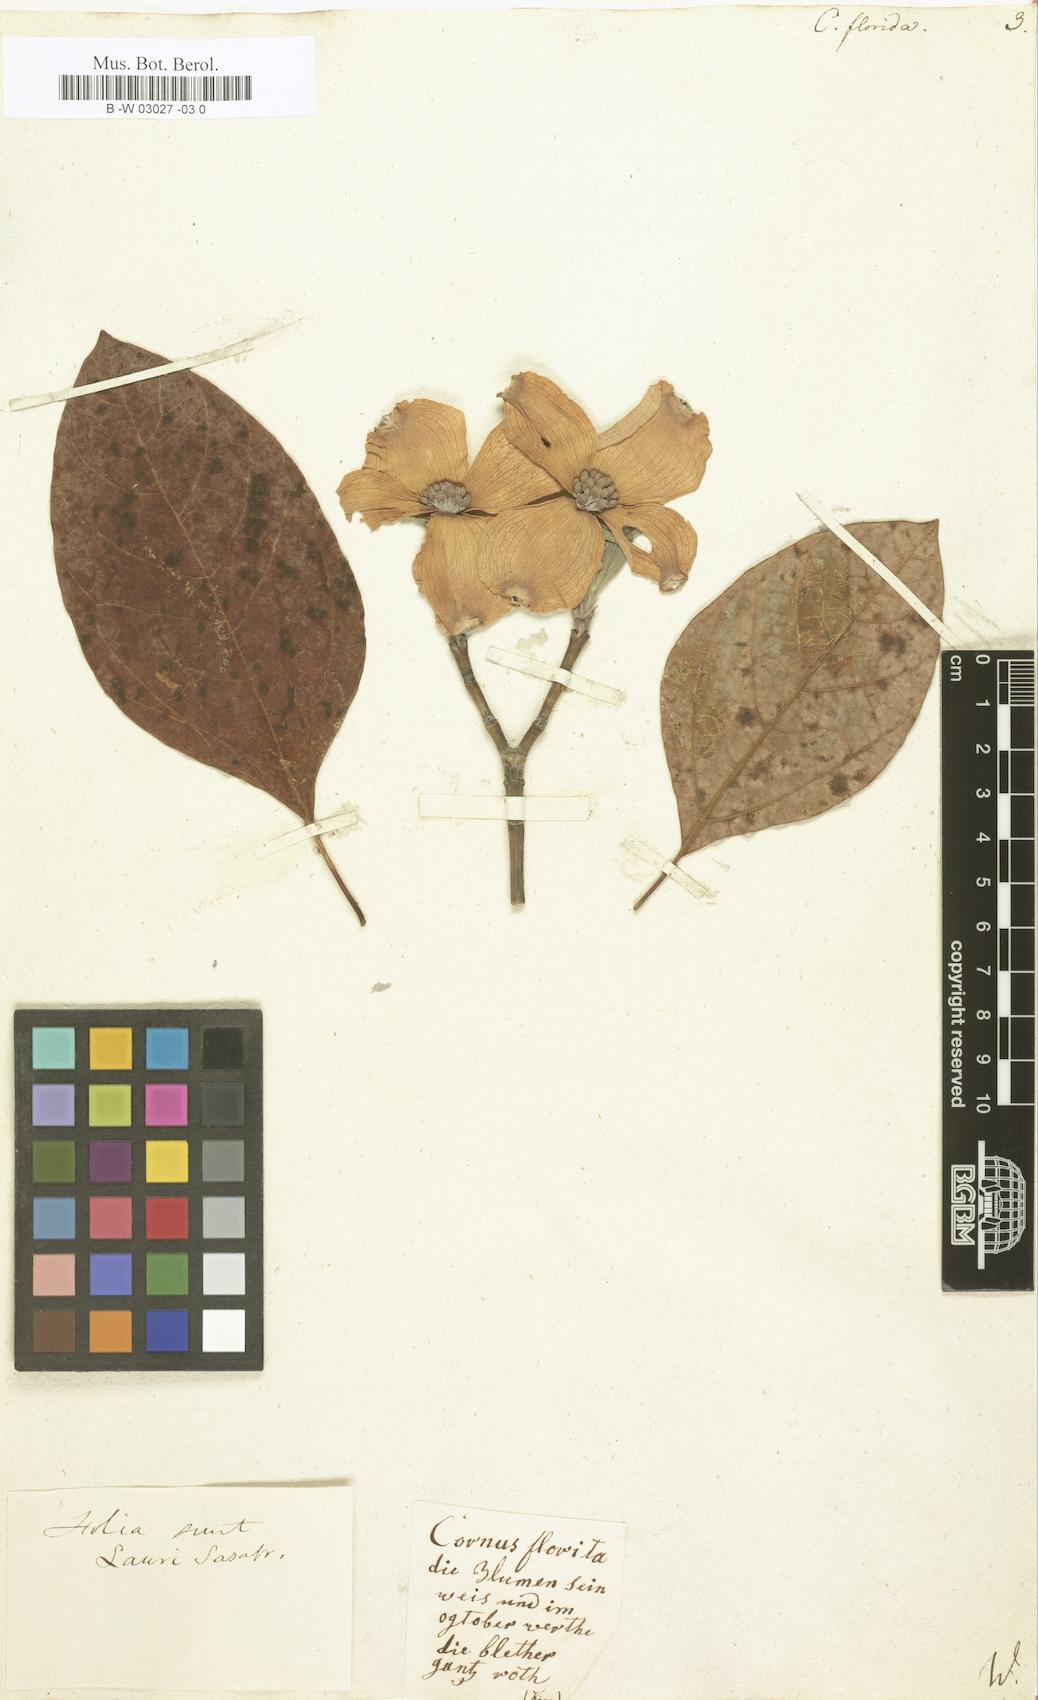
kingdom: Plantae
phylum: Tracheophyta
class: Magnoliopsida
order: Cornales
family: Cornaceae
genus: Cornus
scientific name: Cornus florida
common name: Flowering dogwood
